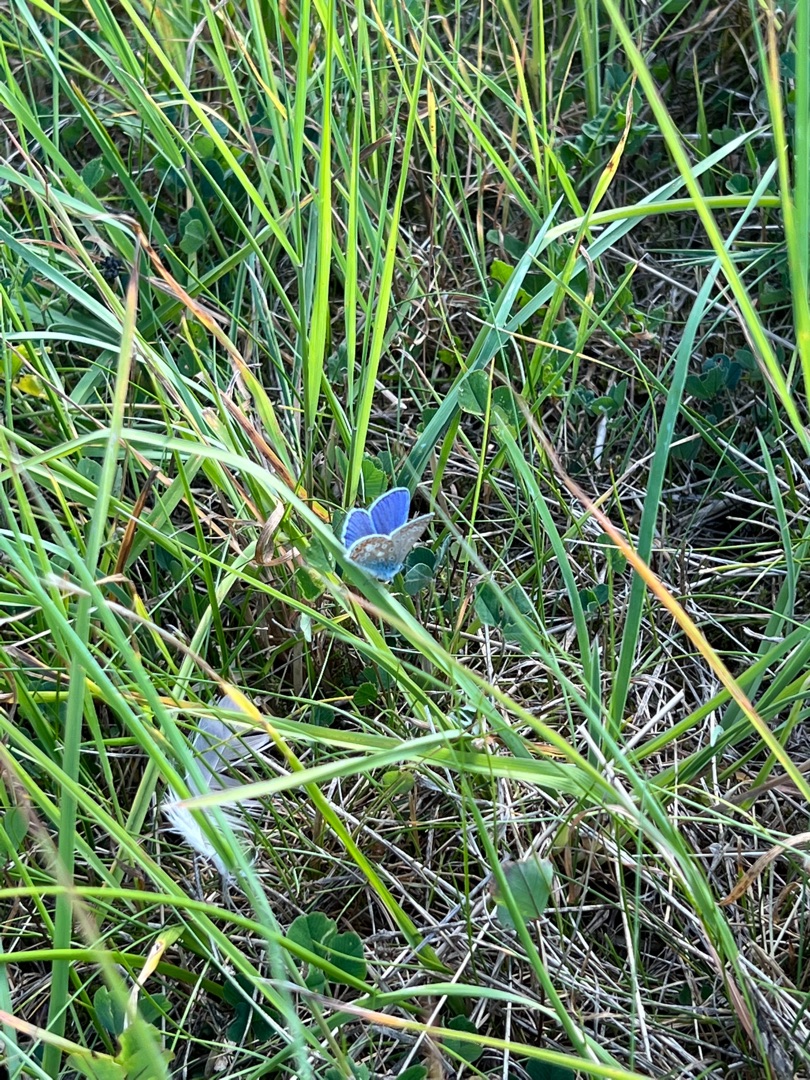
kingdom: Animalia
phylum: Arthropoda
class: Insecta
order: Lepidoptera
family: Lycaenidae
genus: Polyommatus
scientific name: Polyommatus icarus
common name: Almindelig blåfugl
